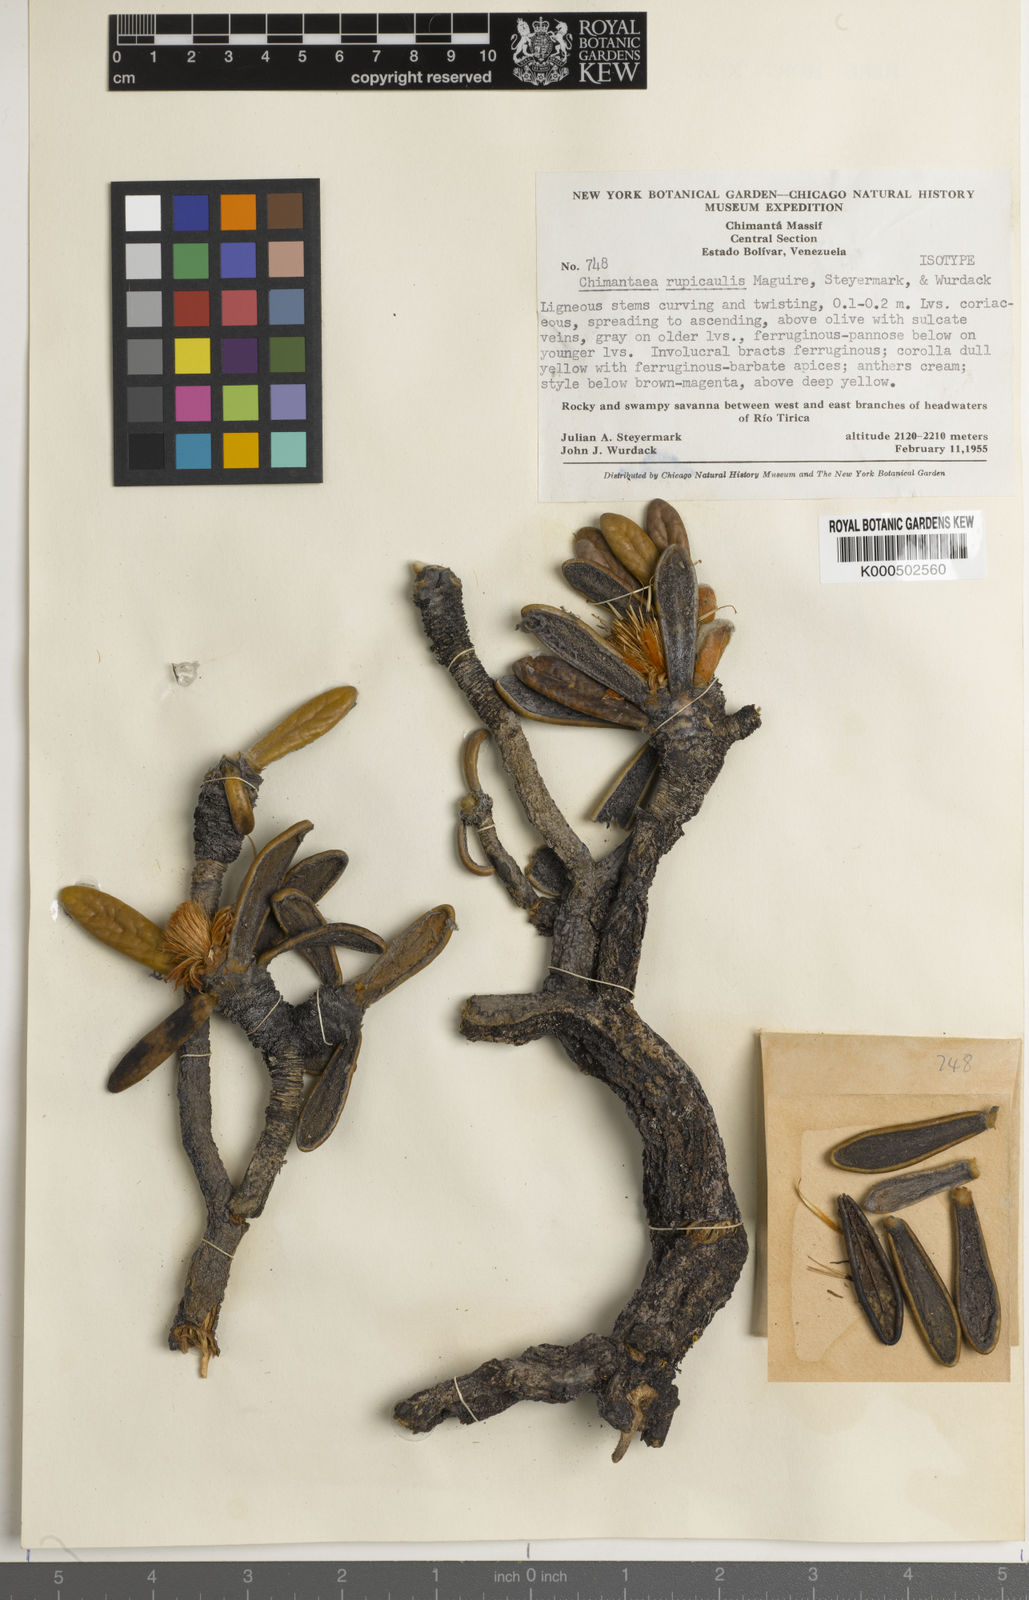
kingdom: Plantae
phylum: Tracheophyta
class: Magnoliopsida
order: Asterales
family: Asteraceae
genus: Chimantaea
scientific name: Chimantaea rupicola
